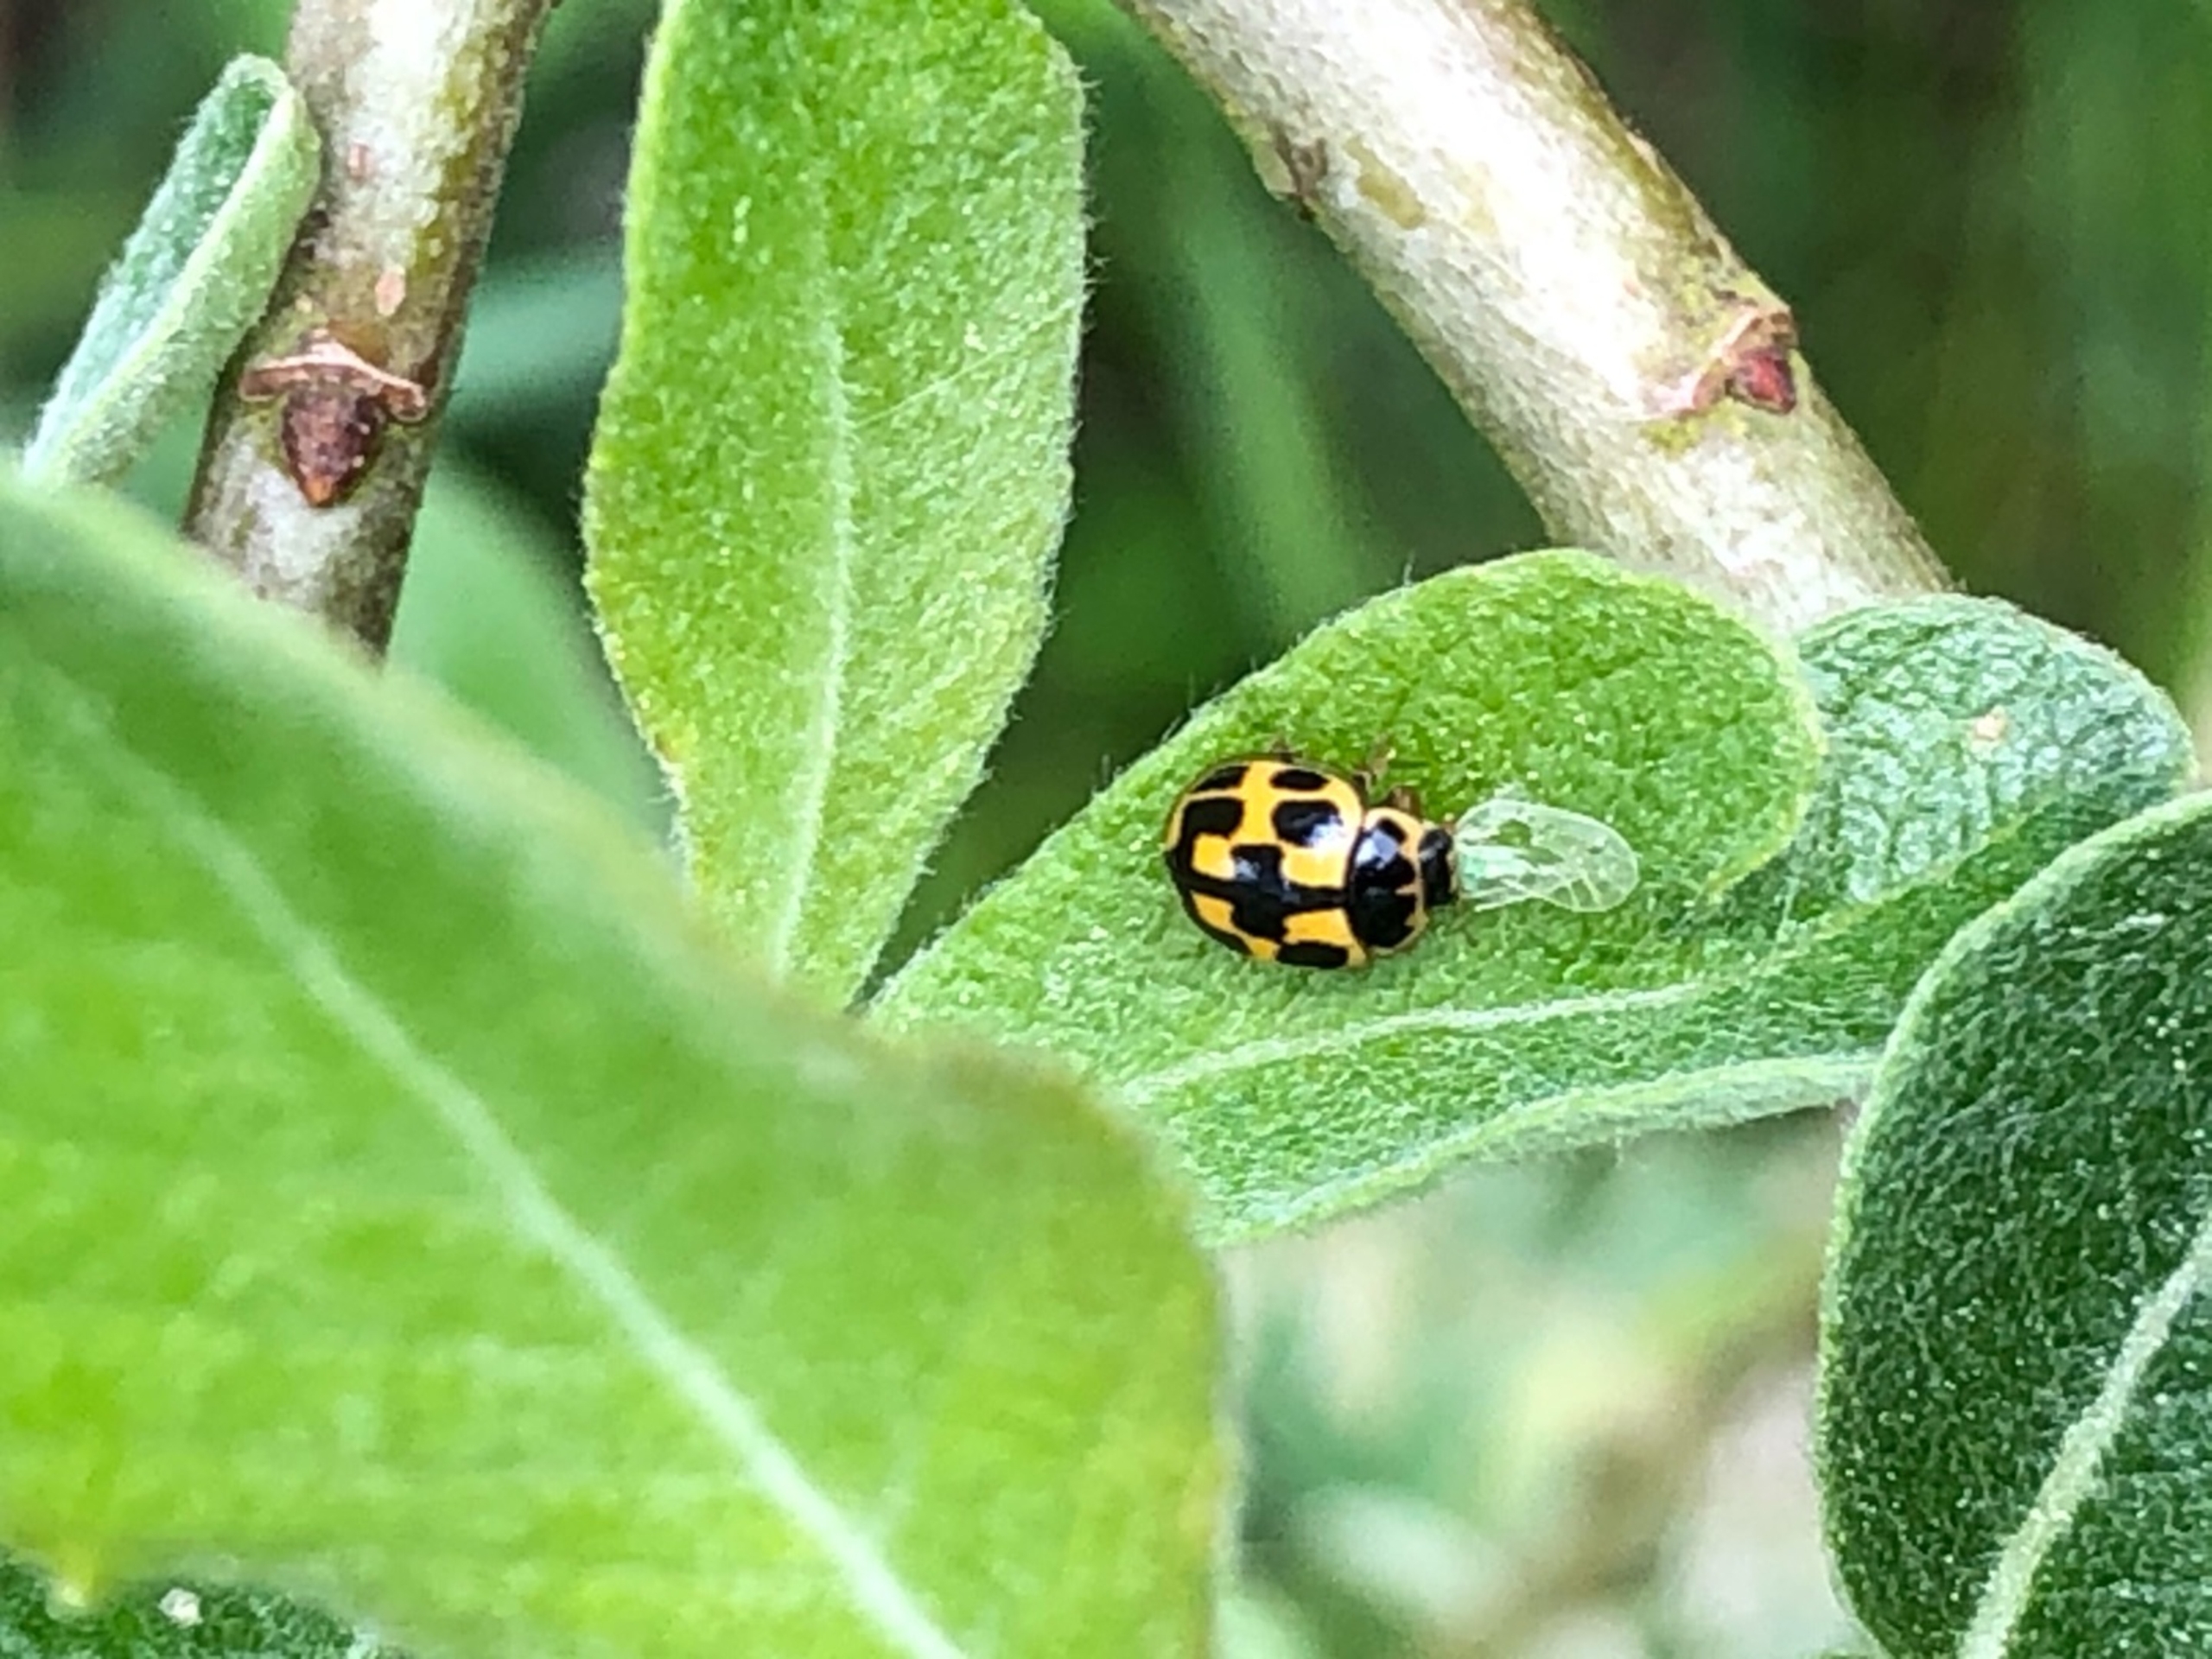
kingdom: Animalia
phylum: Arthropoda
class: Insecta
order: Coleoptera
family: Coccinellidae
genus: Propylaea
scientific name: Propylaea quatuordecimpunctata
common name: Skakbræt
